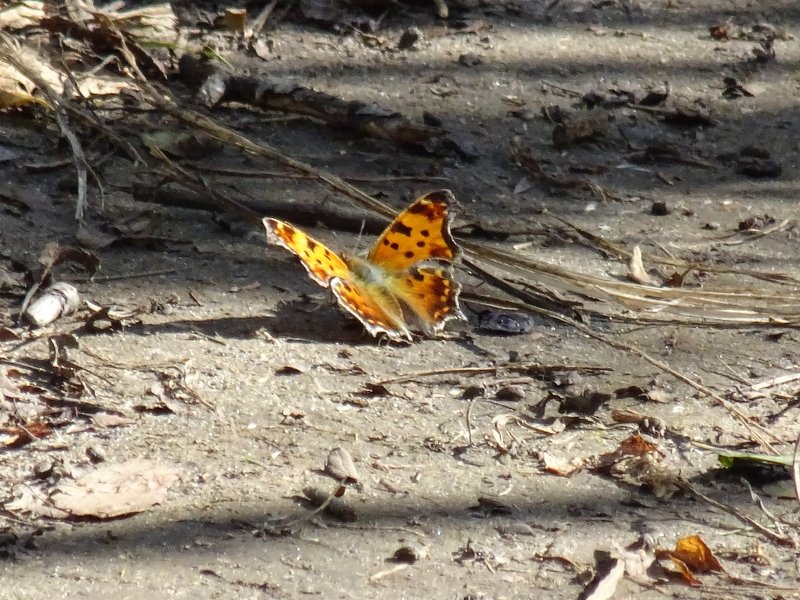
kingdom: Animalia
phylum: Arthropoda
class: Insecta
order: Lepidoptera
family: Nymphalidae
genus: Polygonia
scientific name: Polygonia comma
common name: Eastern Comma
